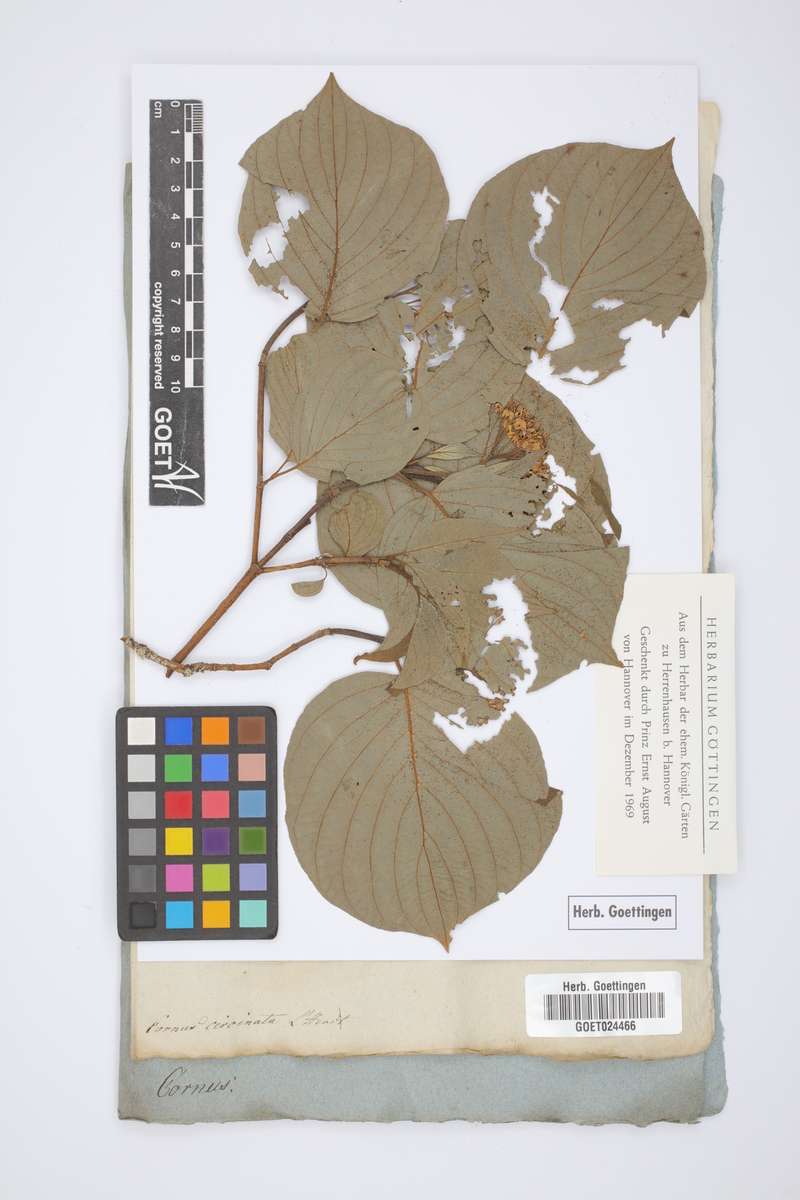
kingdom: Plantae
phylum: Tracheophyta
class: Magnoliopsida
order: Cornales
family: Cornaceae
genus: Cornus
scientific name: Cornus rugosa
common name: Round-leaf dogwood
